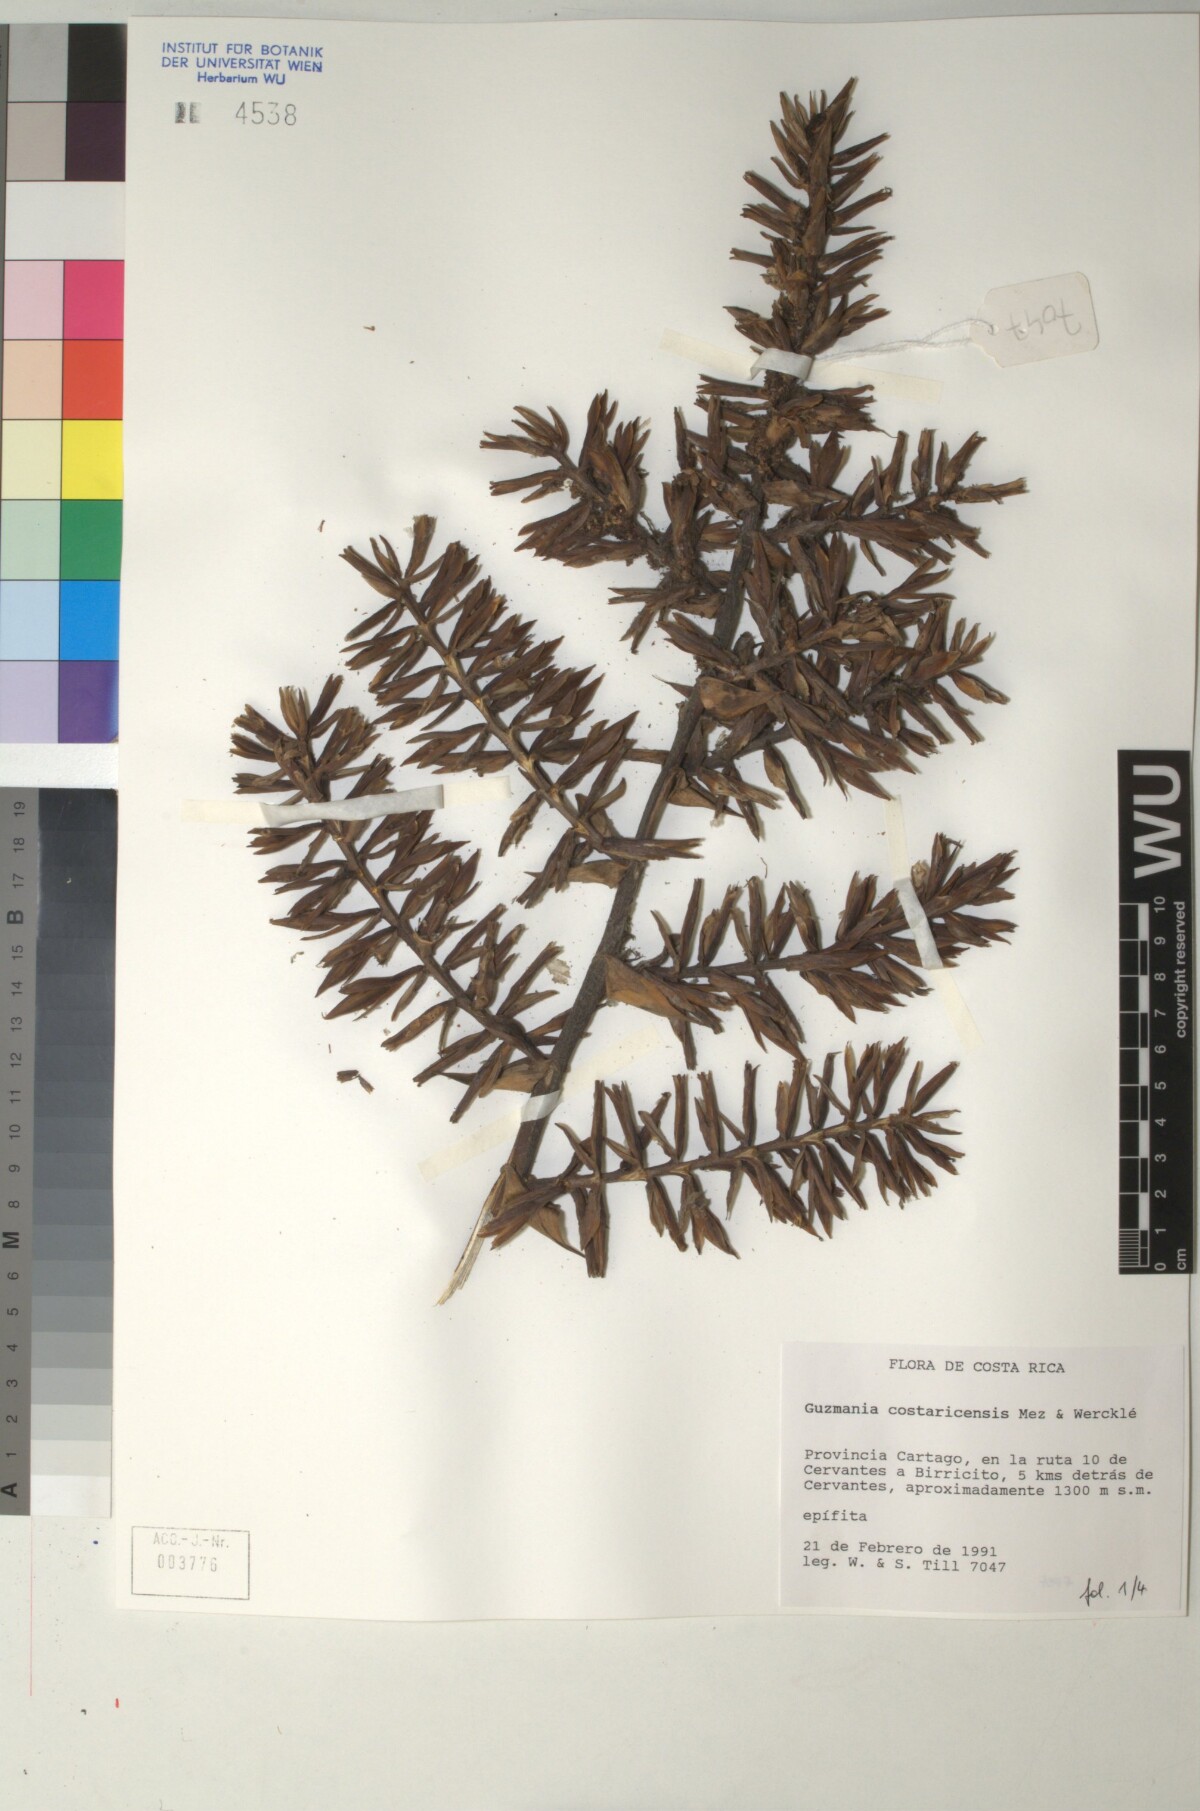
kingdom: Plantae
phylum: Tracheophyta
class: Liliopsida
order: Poales
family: Bromeliaceae
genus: Guzmania
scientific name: Guzmania condensata
